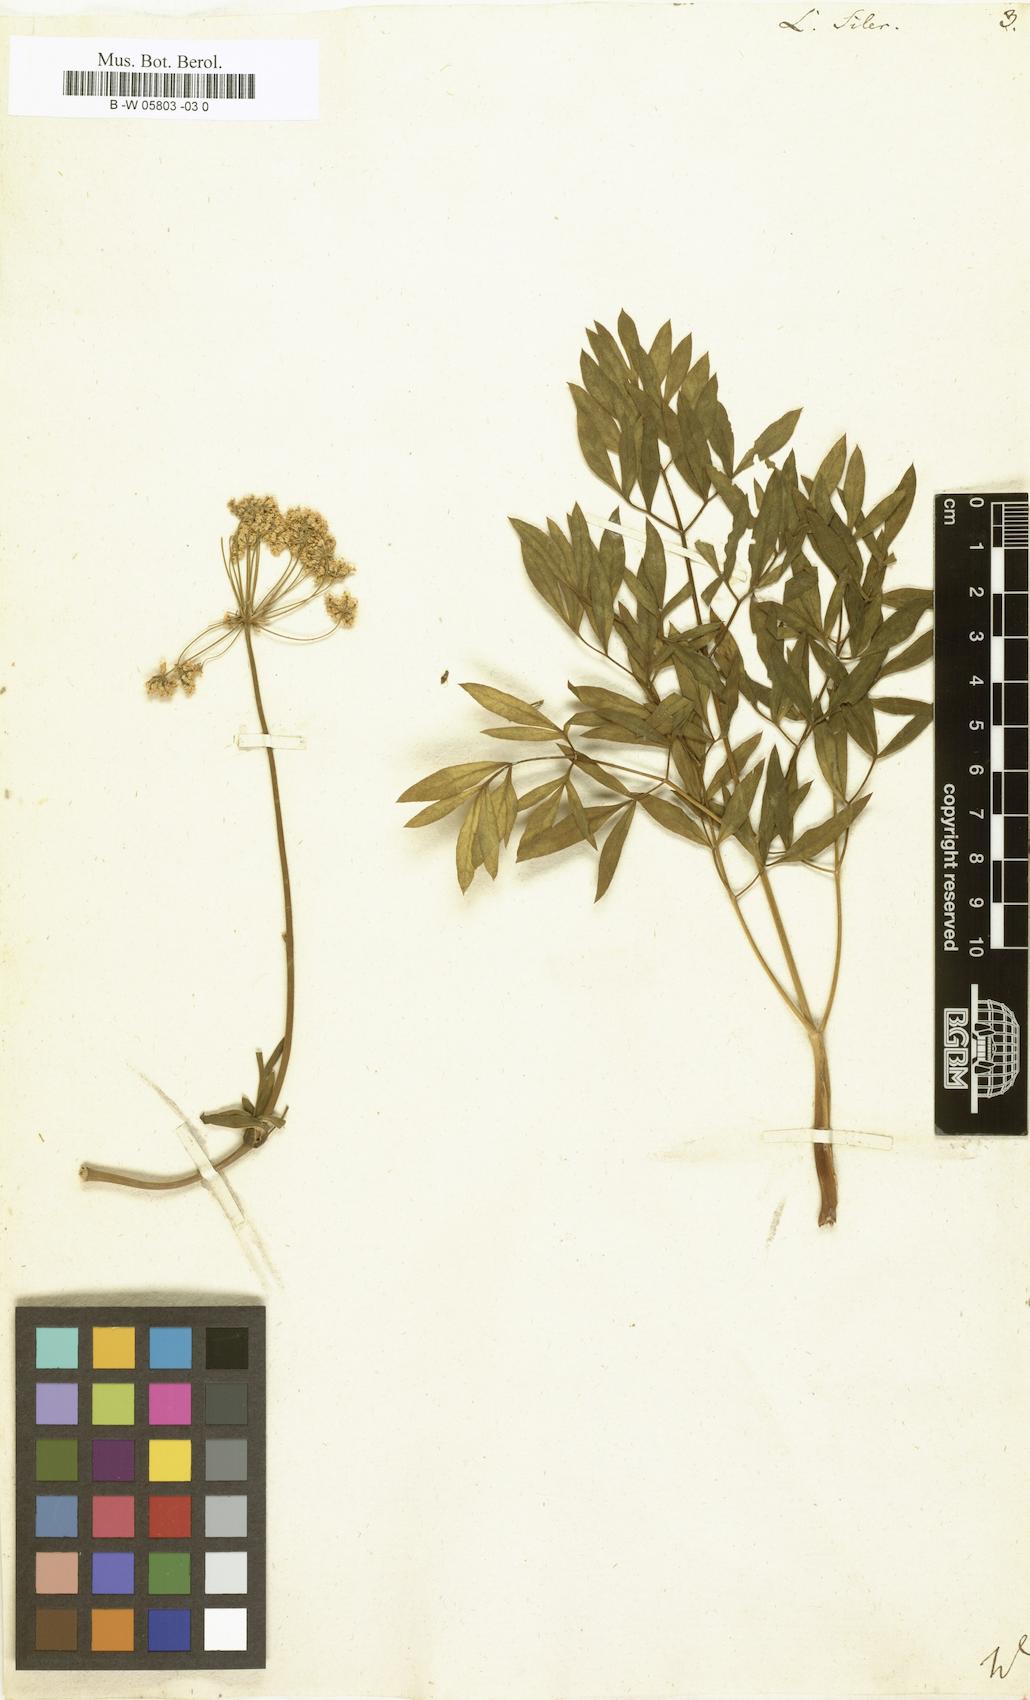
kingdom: Plantae
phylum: Tracheophyta
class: Magnoliopsida
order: Apiales
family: Apiaceae
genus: Siler
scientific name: Siler montanum
